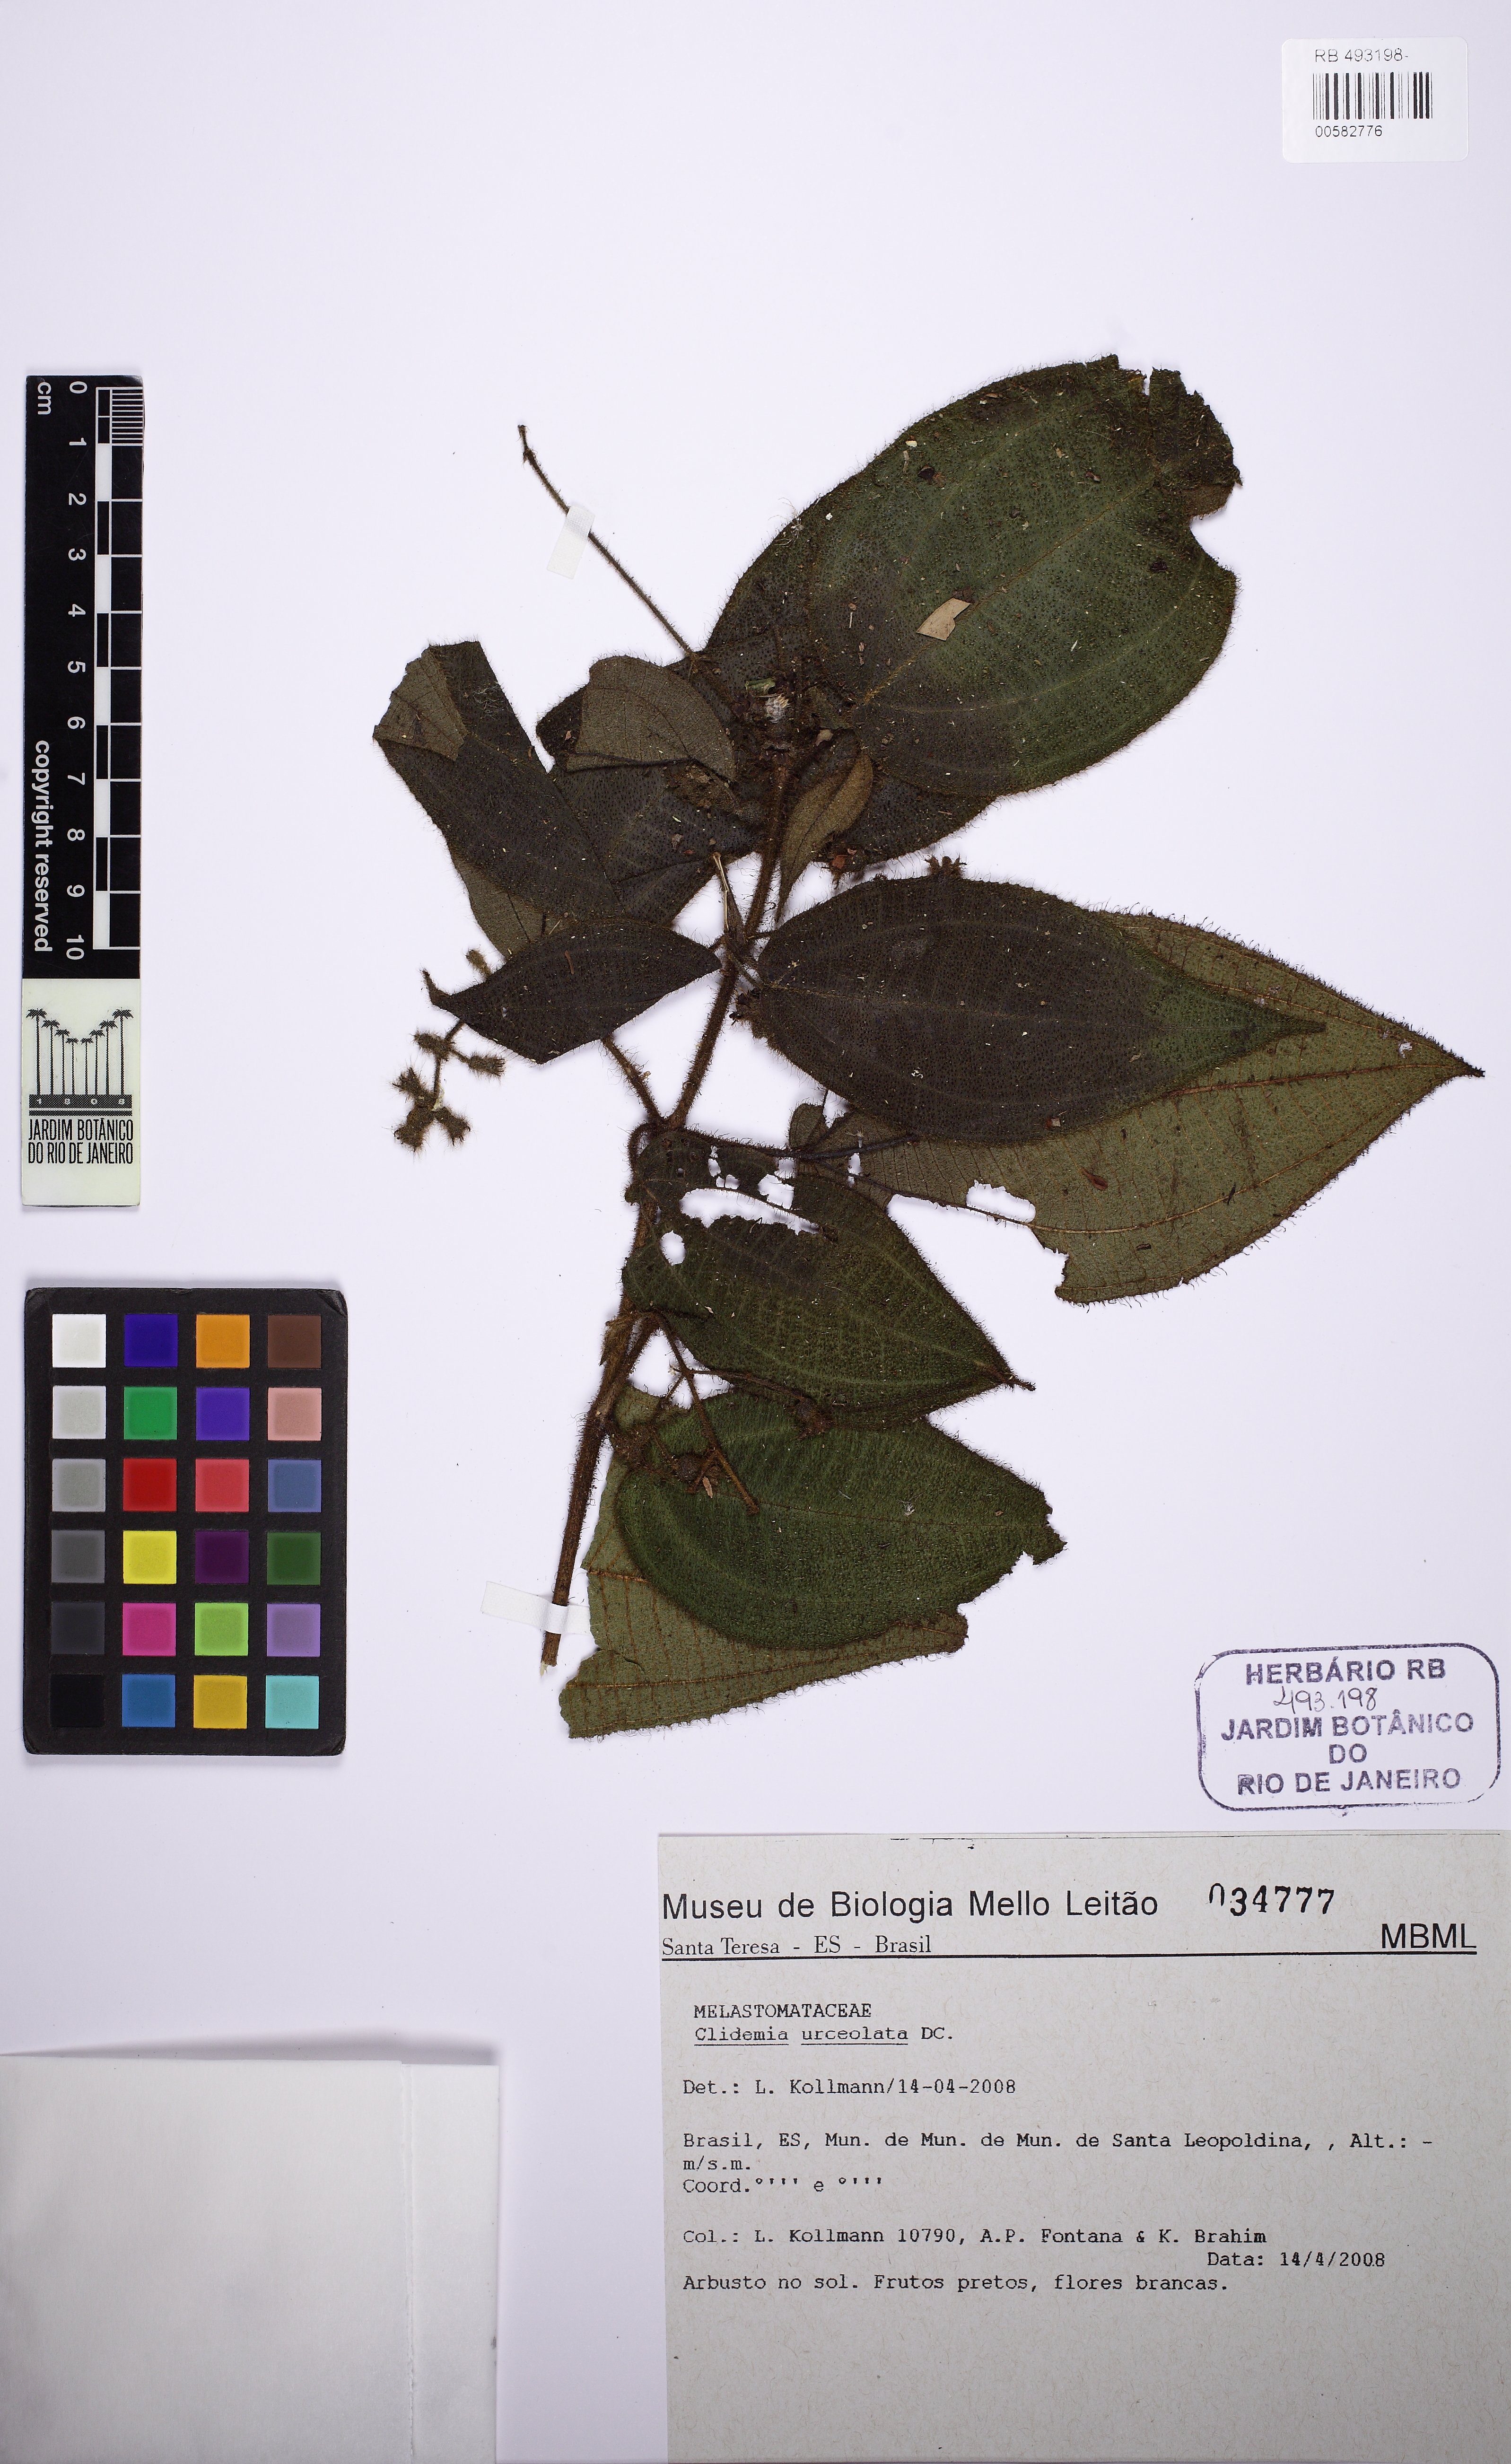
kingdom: Plantae
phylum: Tracheophyta
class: Magnoliopsida
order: Myrtales
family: Melastomataceae
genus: Miconia
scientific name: Miconia neourceolata
